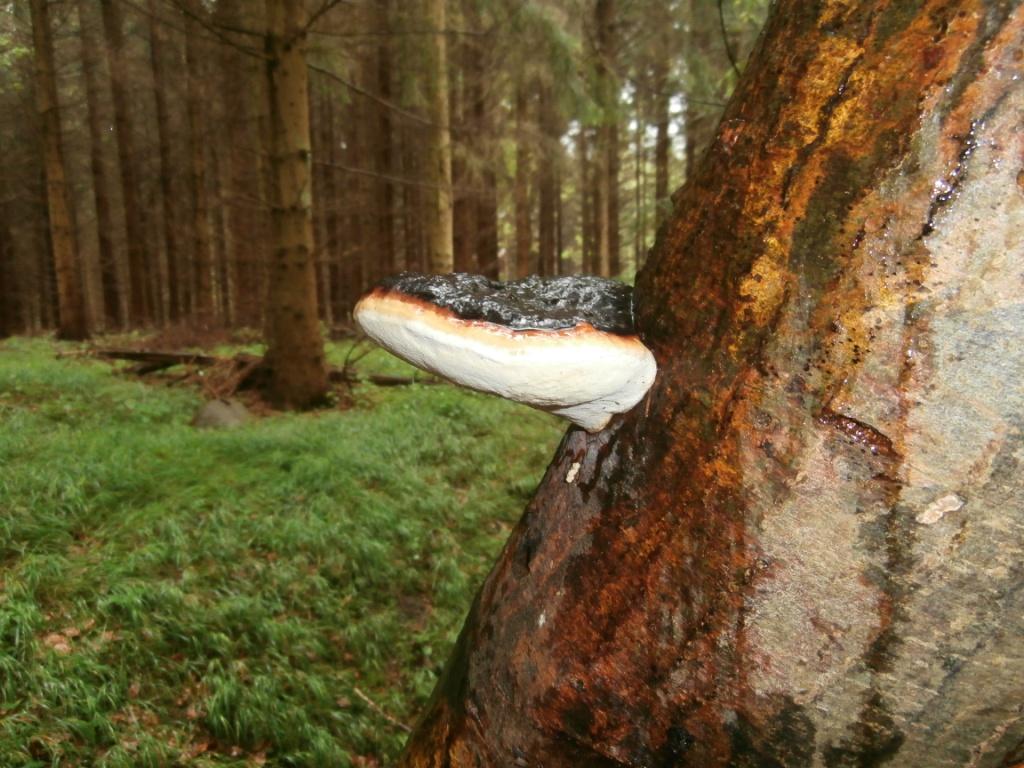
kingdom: Fungi
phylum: Basidiomycota
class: Agaricomycetes
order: Polyporales
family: Fomitopsidaceae
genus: Fomitopsis
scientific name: Fomitopsis pinicola
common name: randbæltet hovporesvamp
